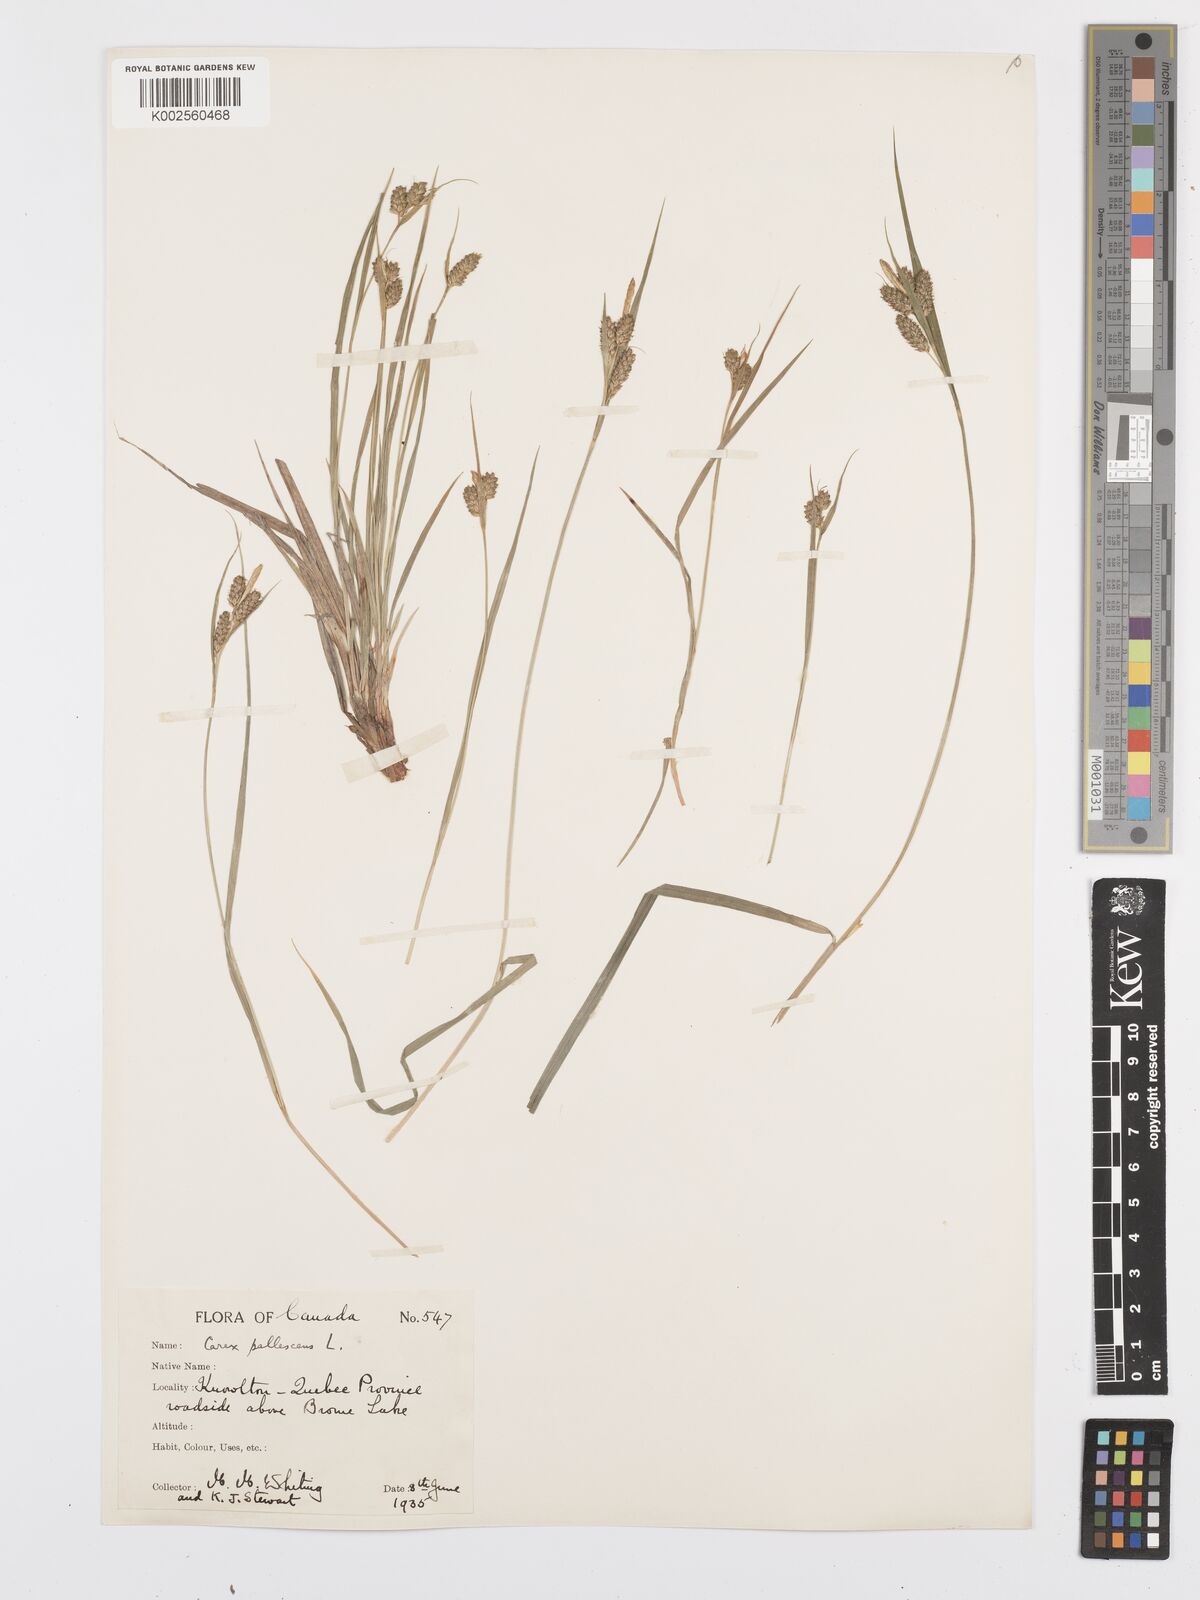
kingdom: Plantae
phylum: Tracheophyta
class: Liliopsida
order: Poales
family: Cyperaceae
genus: Carex
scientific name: Carex pallescens
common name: Pale sedge
